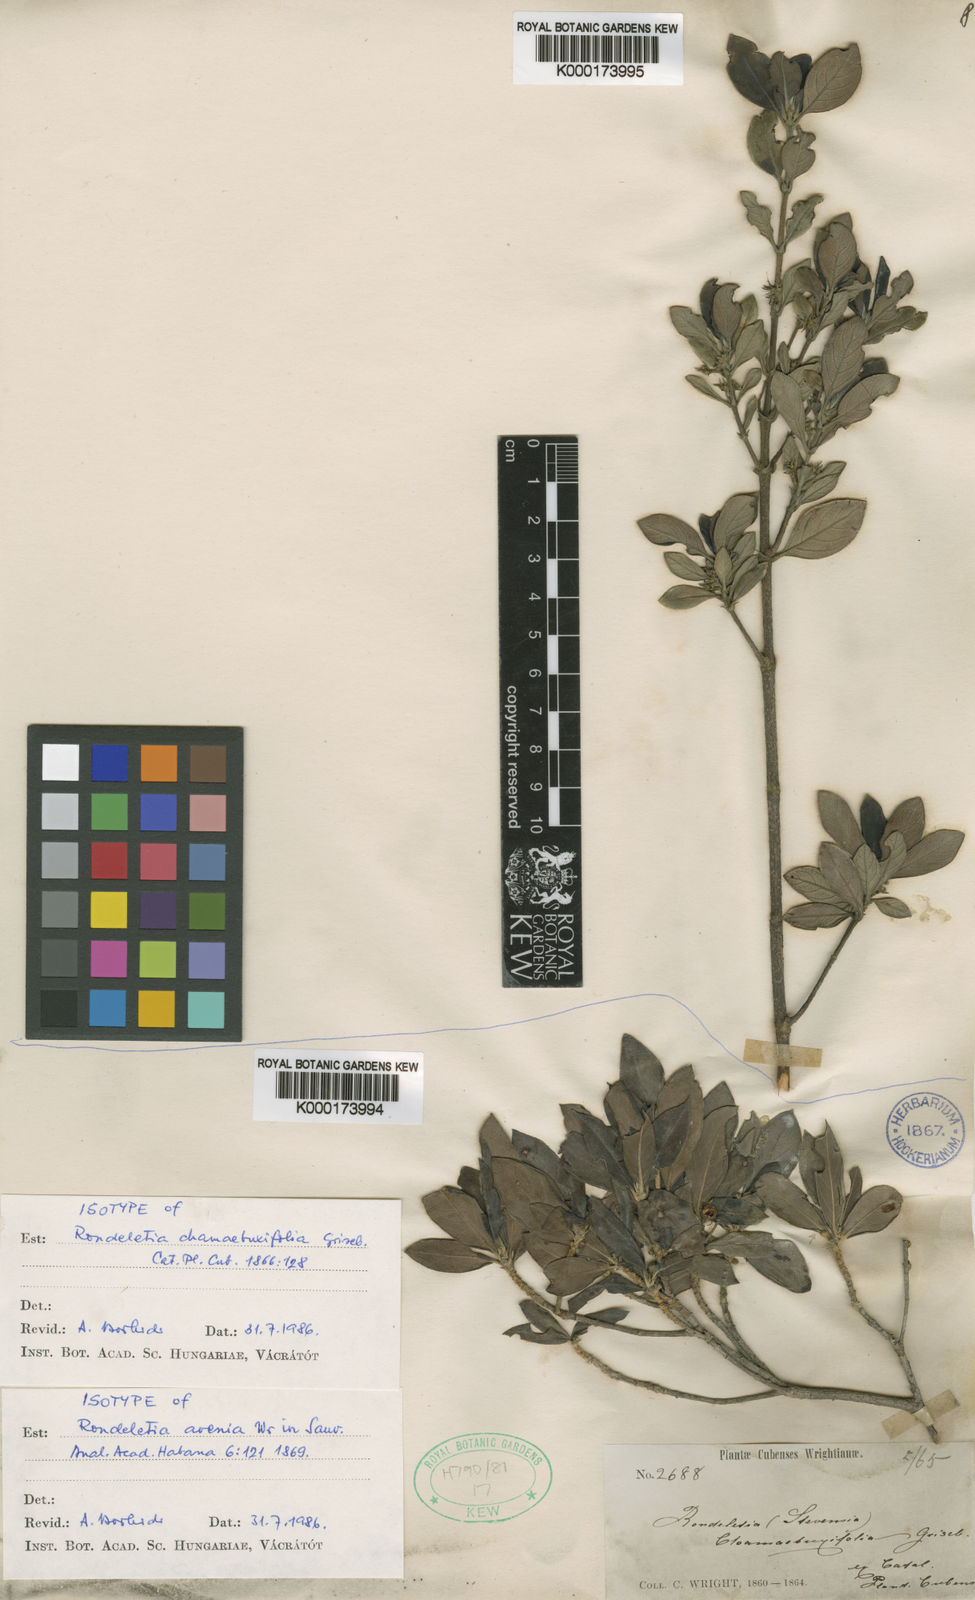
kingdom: Plantae
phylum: Tracheophyta
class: Magnoliopsida
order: Gentianales
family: Rubiaceae
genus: Rondeletia
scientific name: Rondeletia chamaebuxifolia
